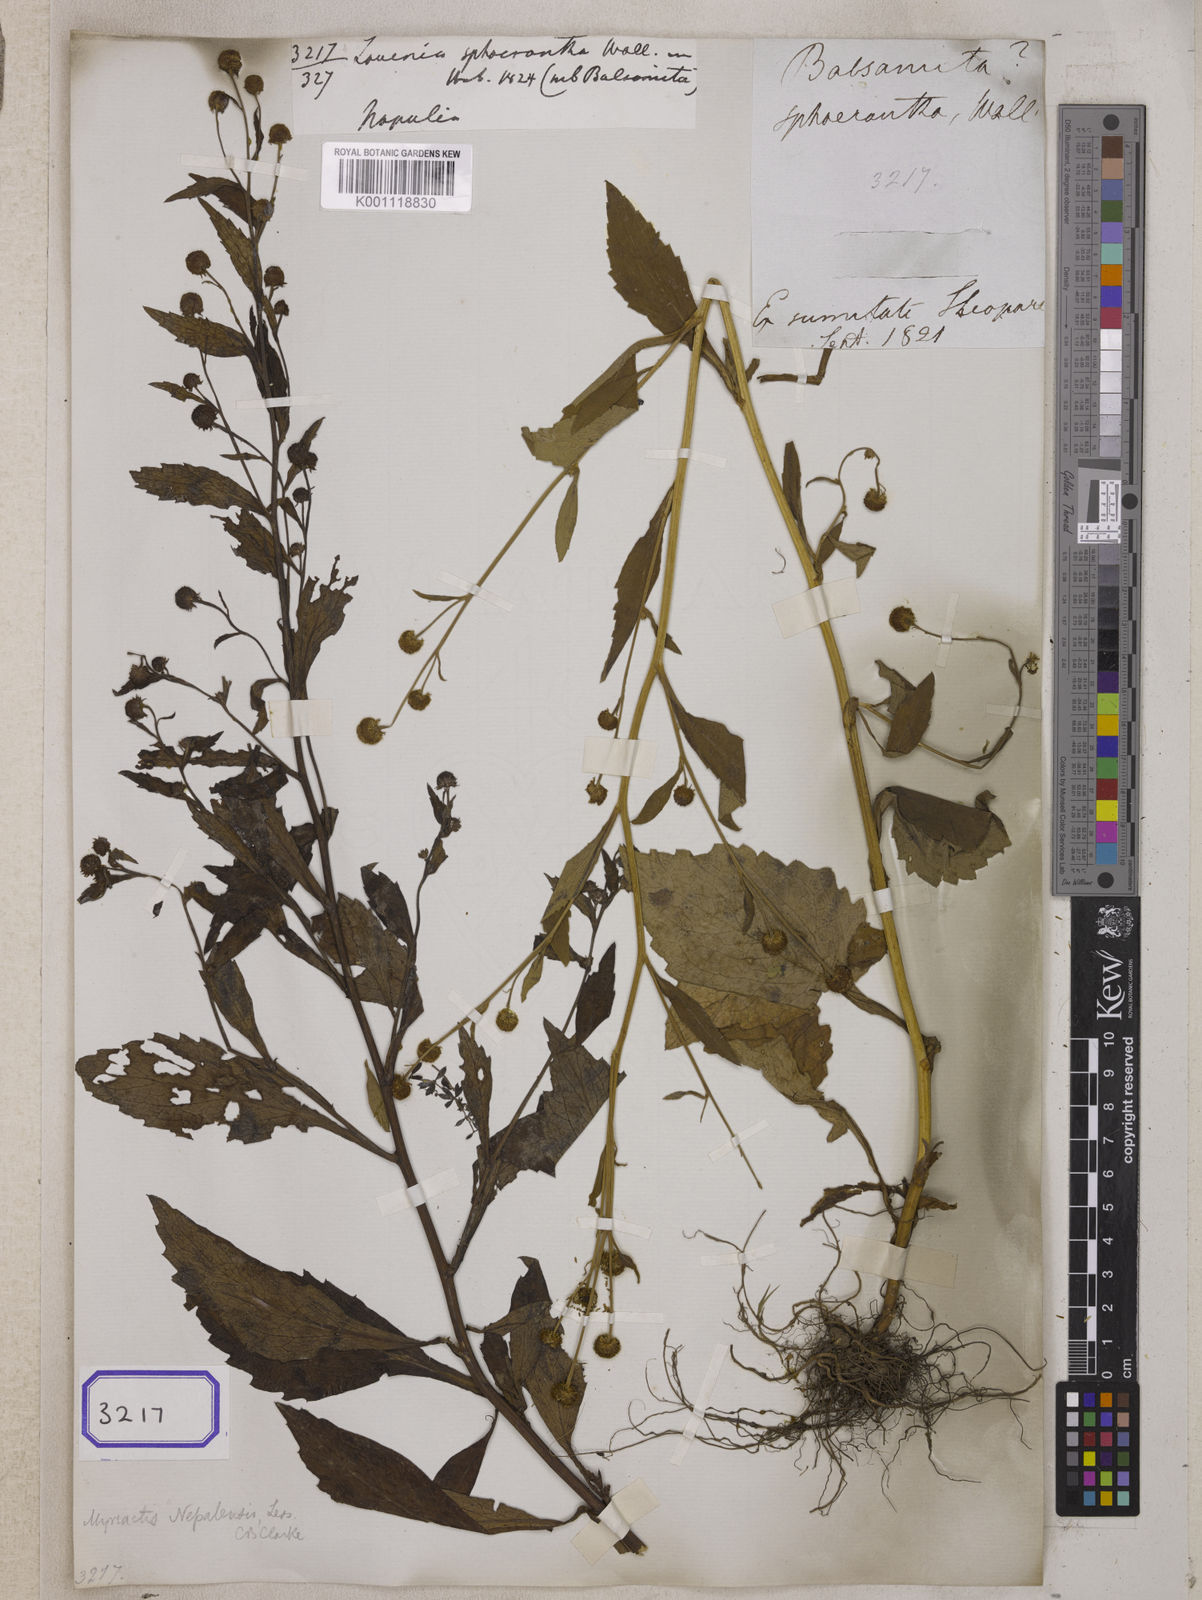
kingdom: Plantae
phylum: Tracheophyta
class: Magnoliopsida
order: Asterales
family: Asteraceae
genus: Myriactis
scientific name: Myriactis nepalensis
